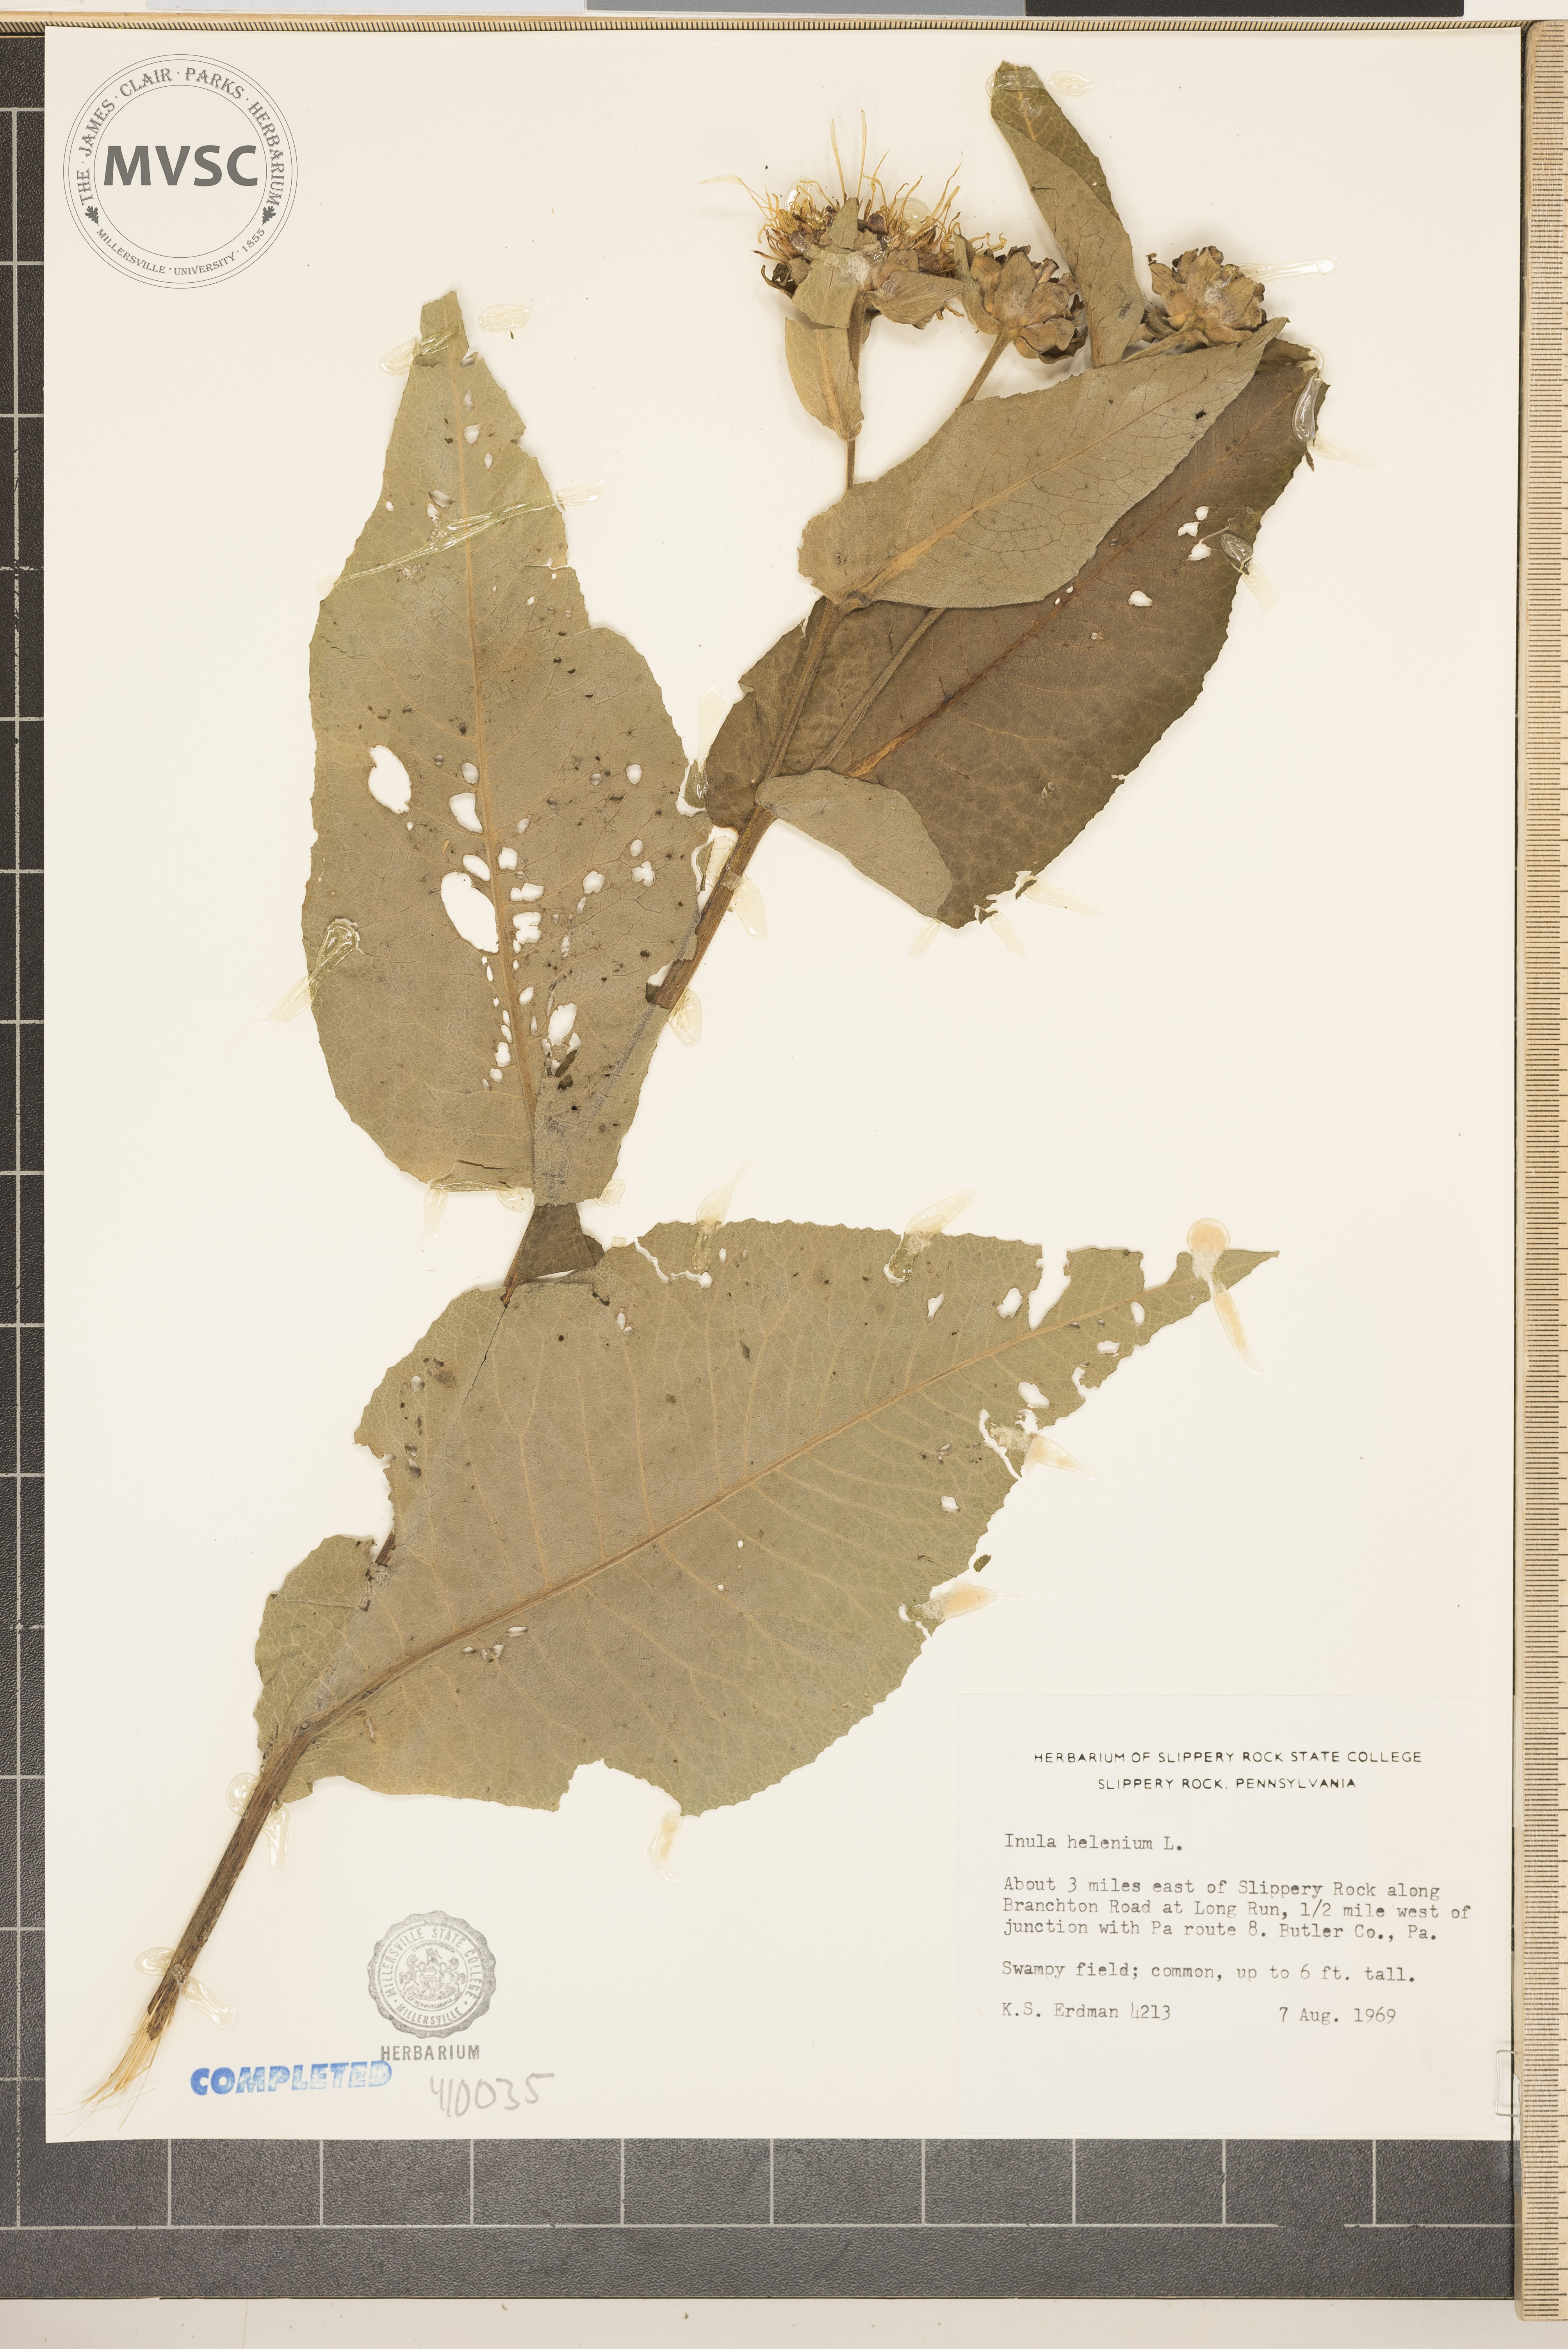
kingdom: Plantae
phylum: Tracheophyta
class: Magnoliopsida
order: Asterales
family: Asteraceae
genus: Inula
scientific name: Inula helenium
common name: Elecampane
